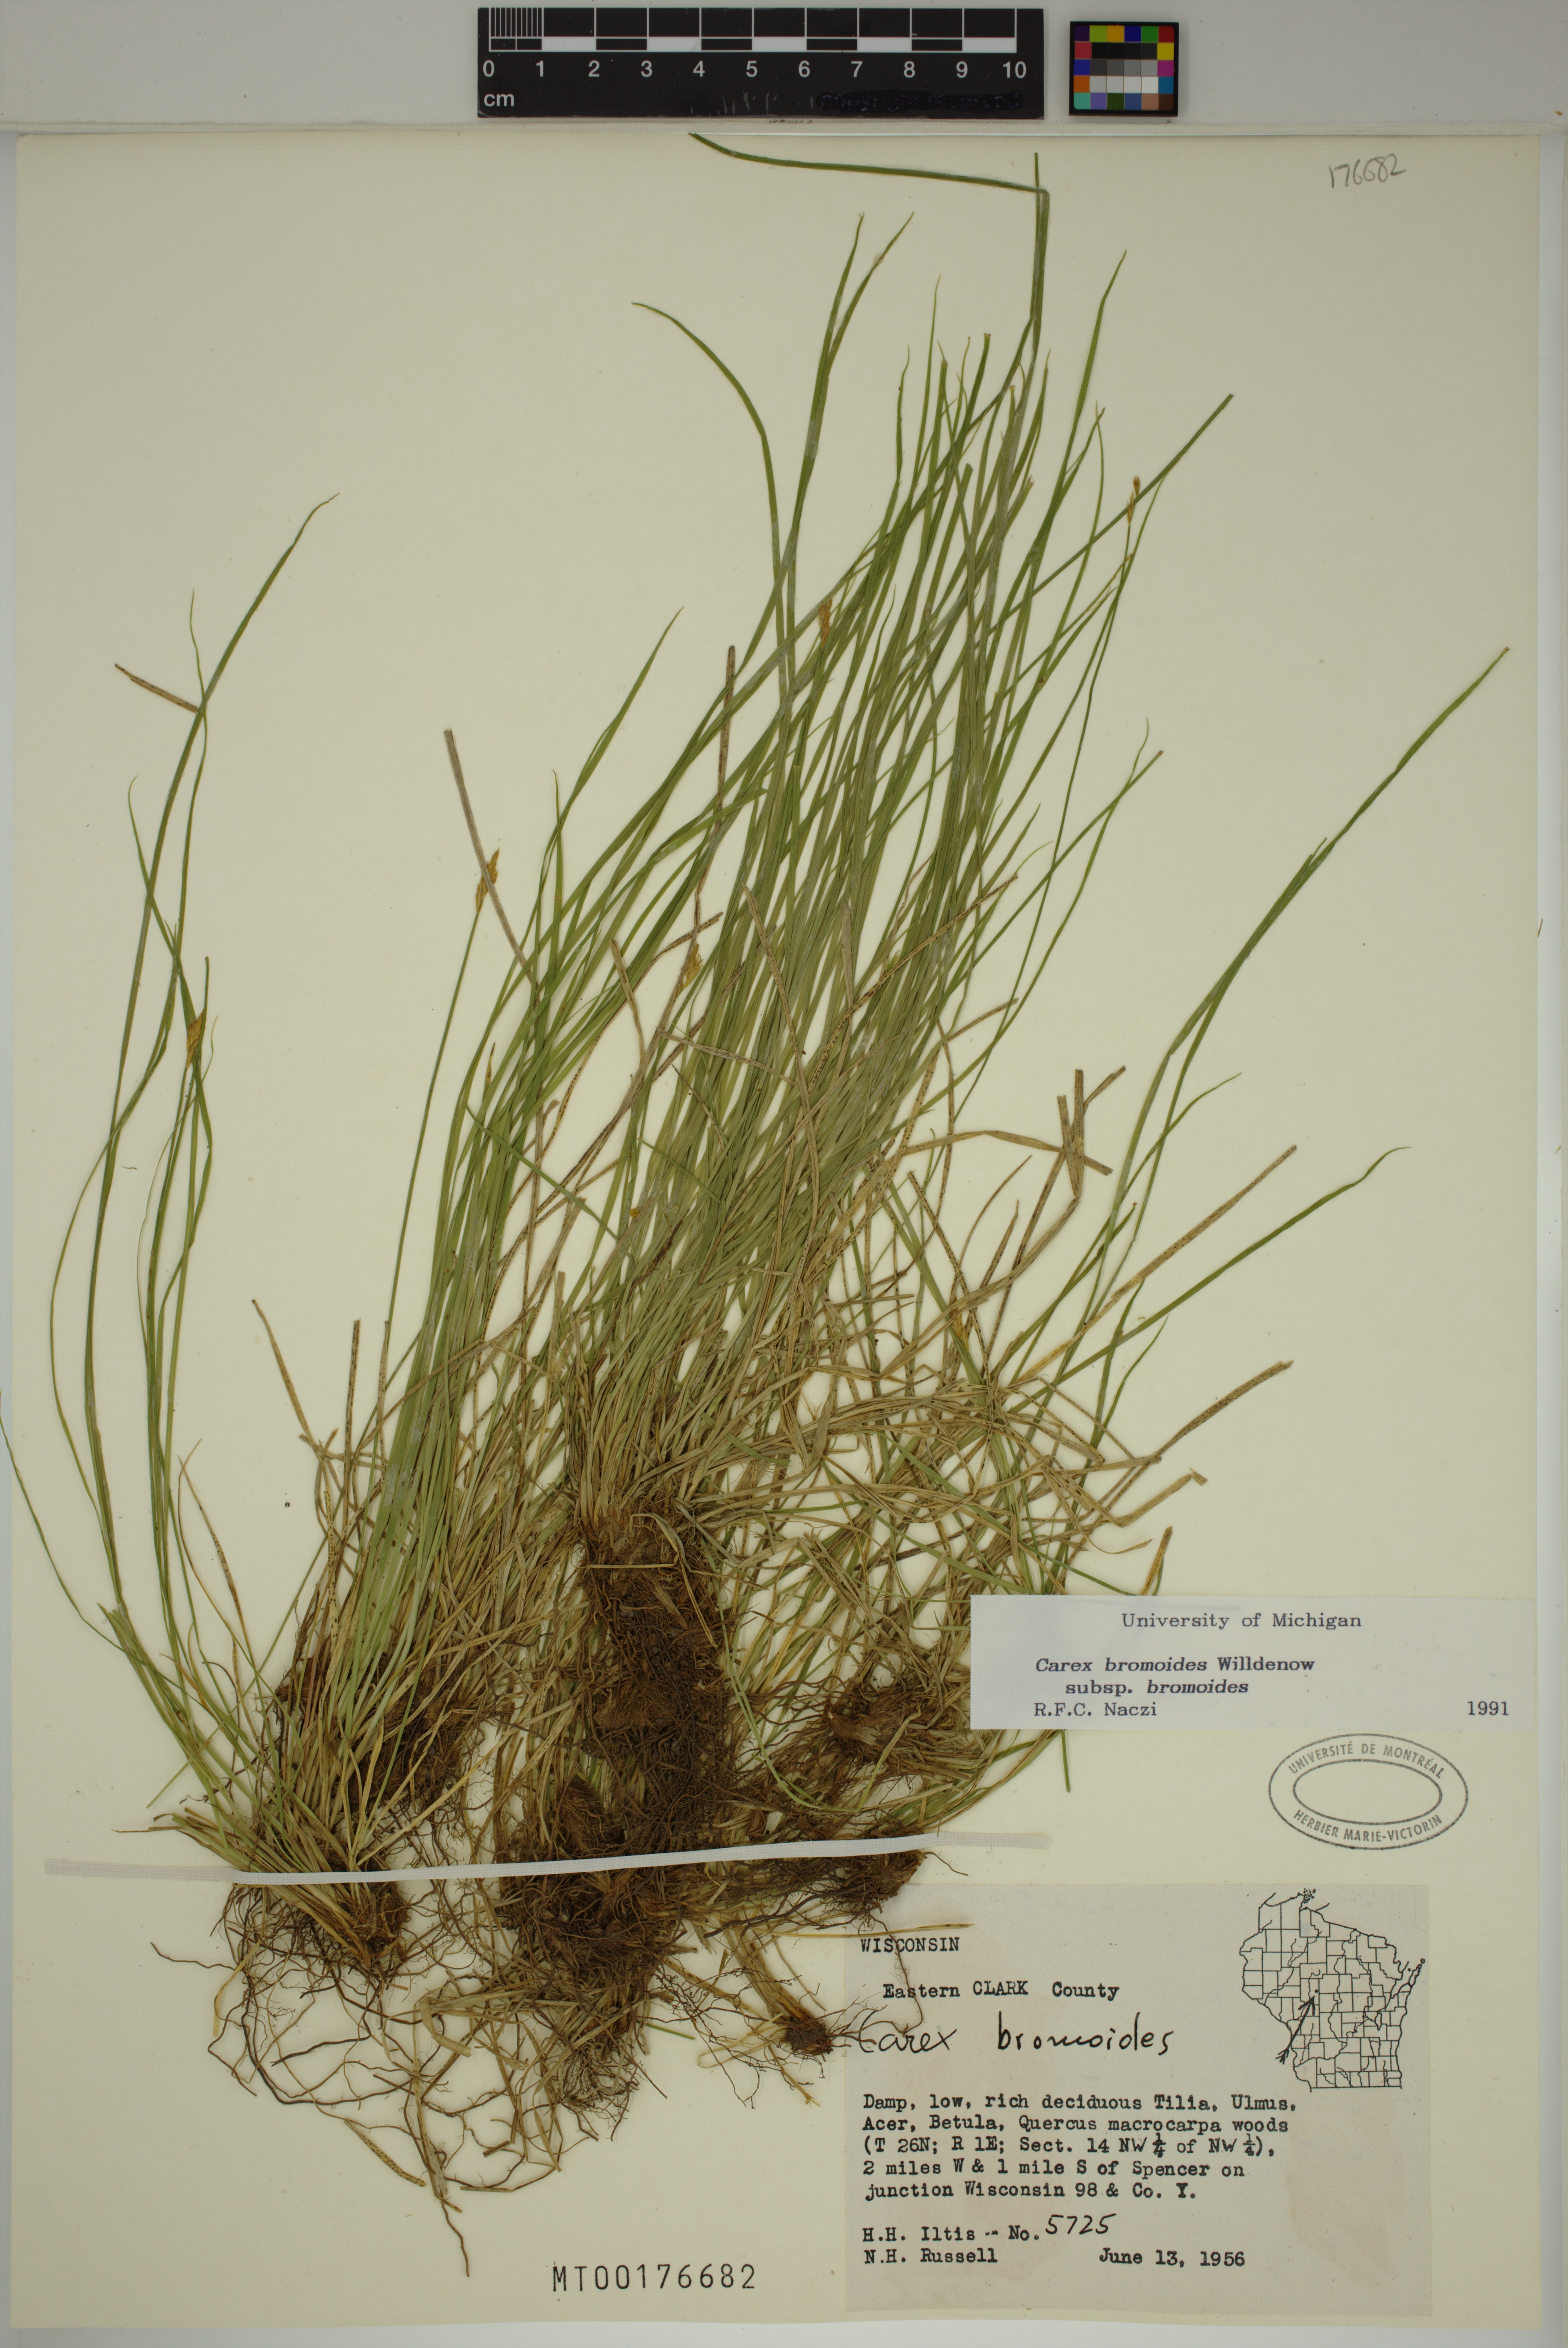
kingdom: Plantae
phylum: Tracheophyta
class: Liliopsida
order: Poales
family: Cyperaceae
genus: Carex
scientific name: Carex bromoides
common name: Brome hummock sedge
